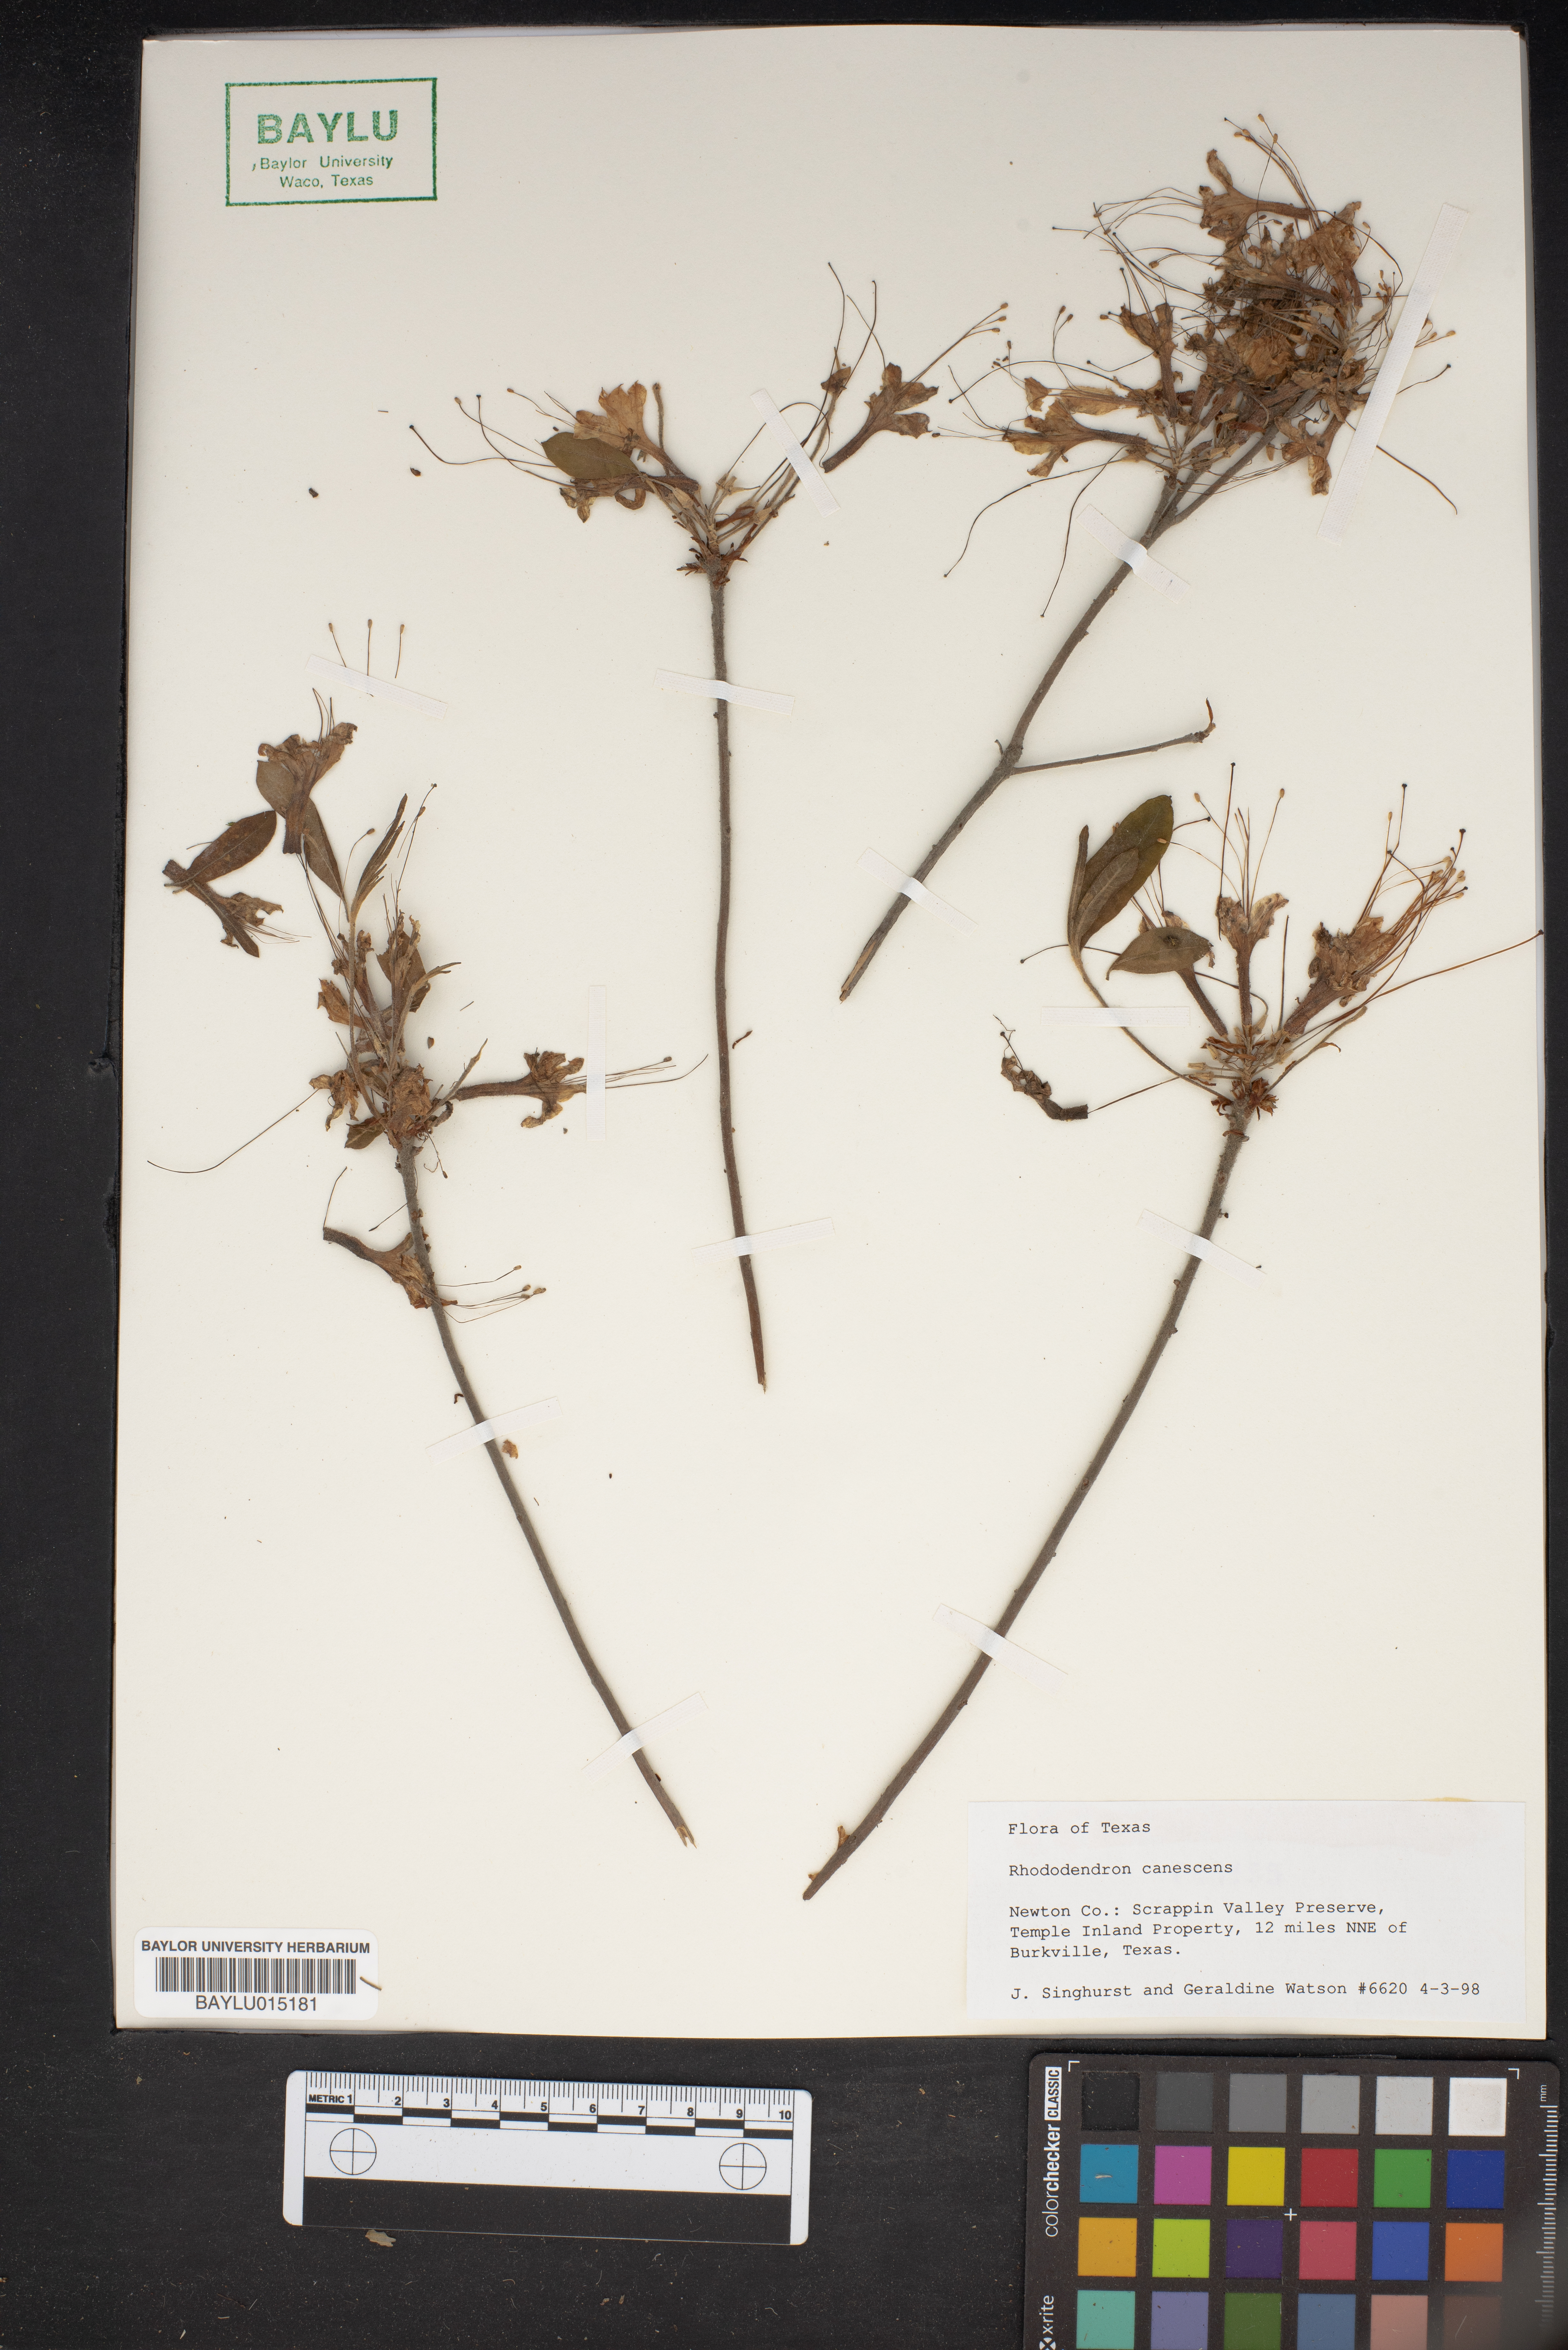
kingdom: Plantae
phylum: Tracheophyta
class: Magnoliopsida
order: Ericales
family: Ericaceae
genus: Rhododendron
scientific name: Rhododendron canescens
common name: Mountain azalea
